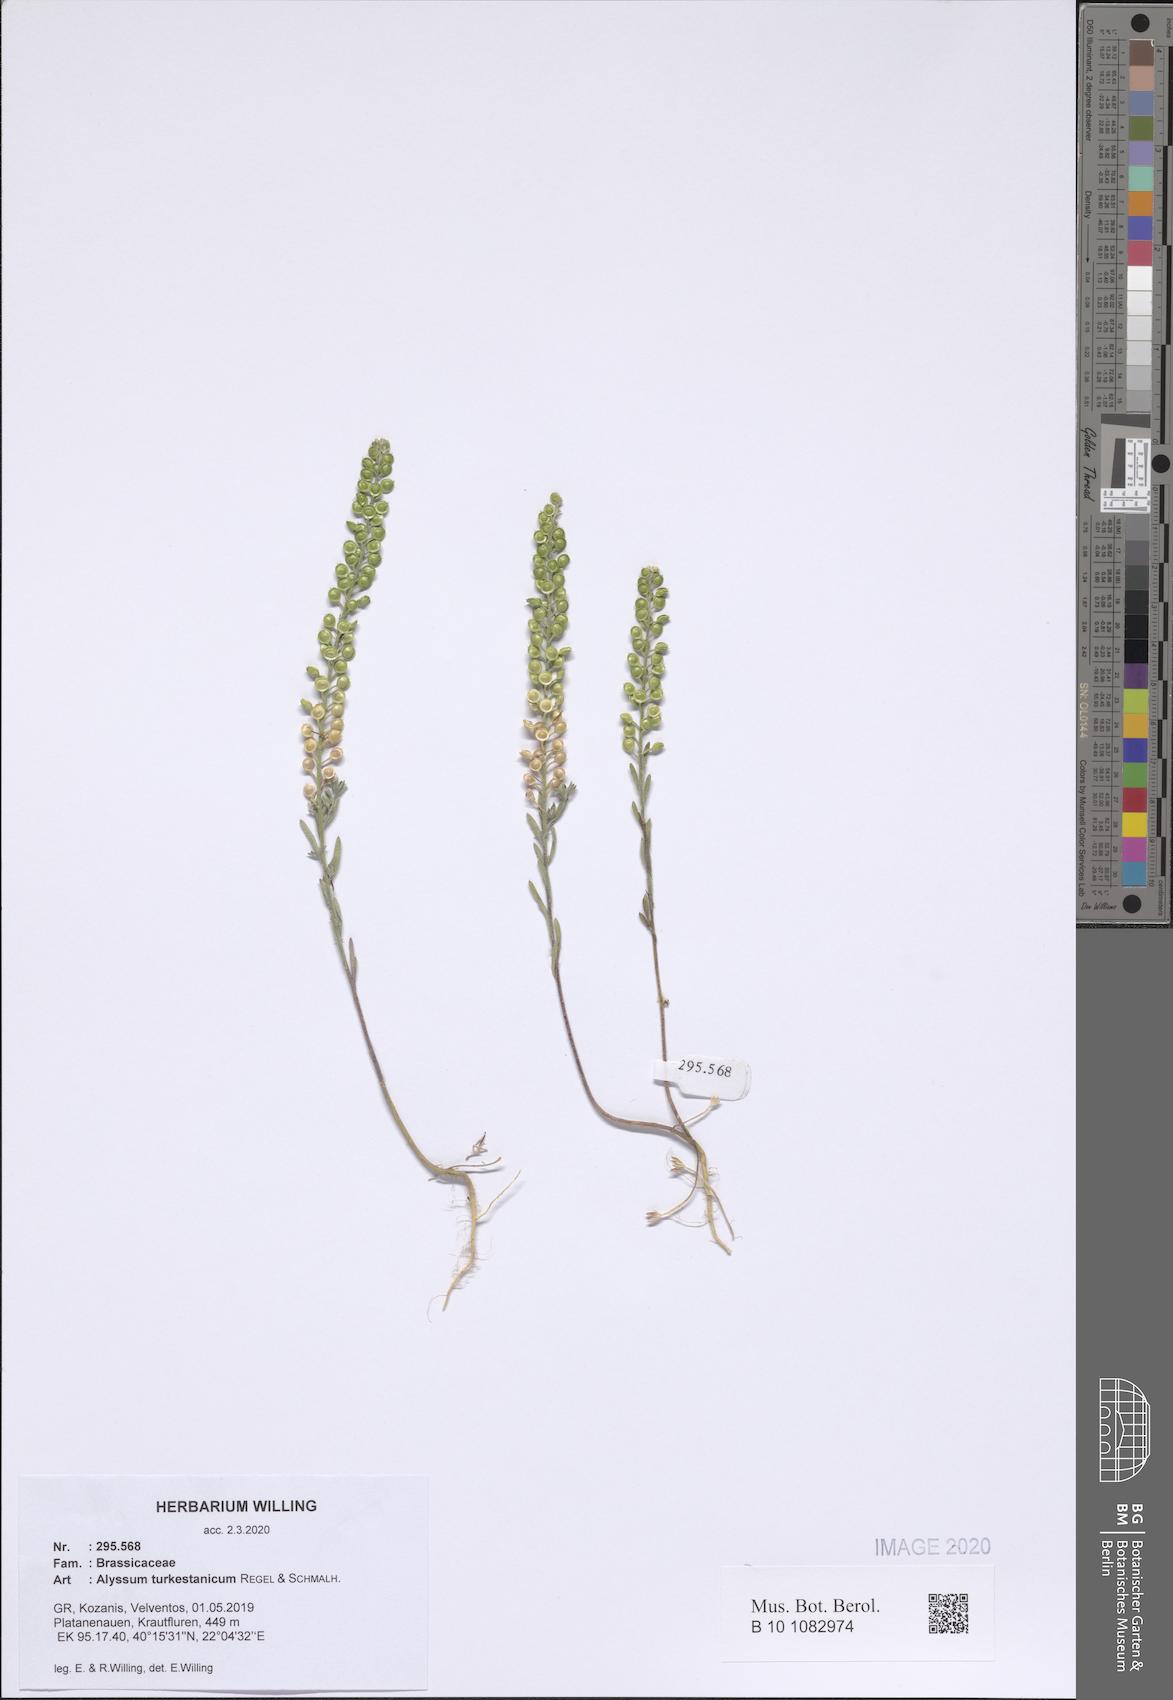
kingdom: Plantae
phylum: Tracheophyta
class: Magnoliopsida
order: Brassicales
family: Brassicaceae
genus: Alyssum
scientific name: Alyssum turkestanicum
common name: Desert alyssum
